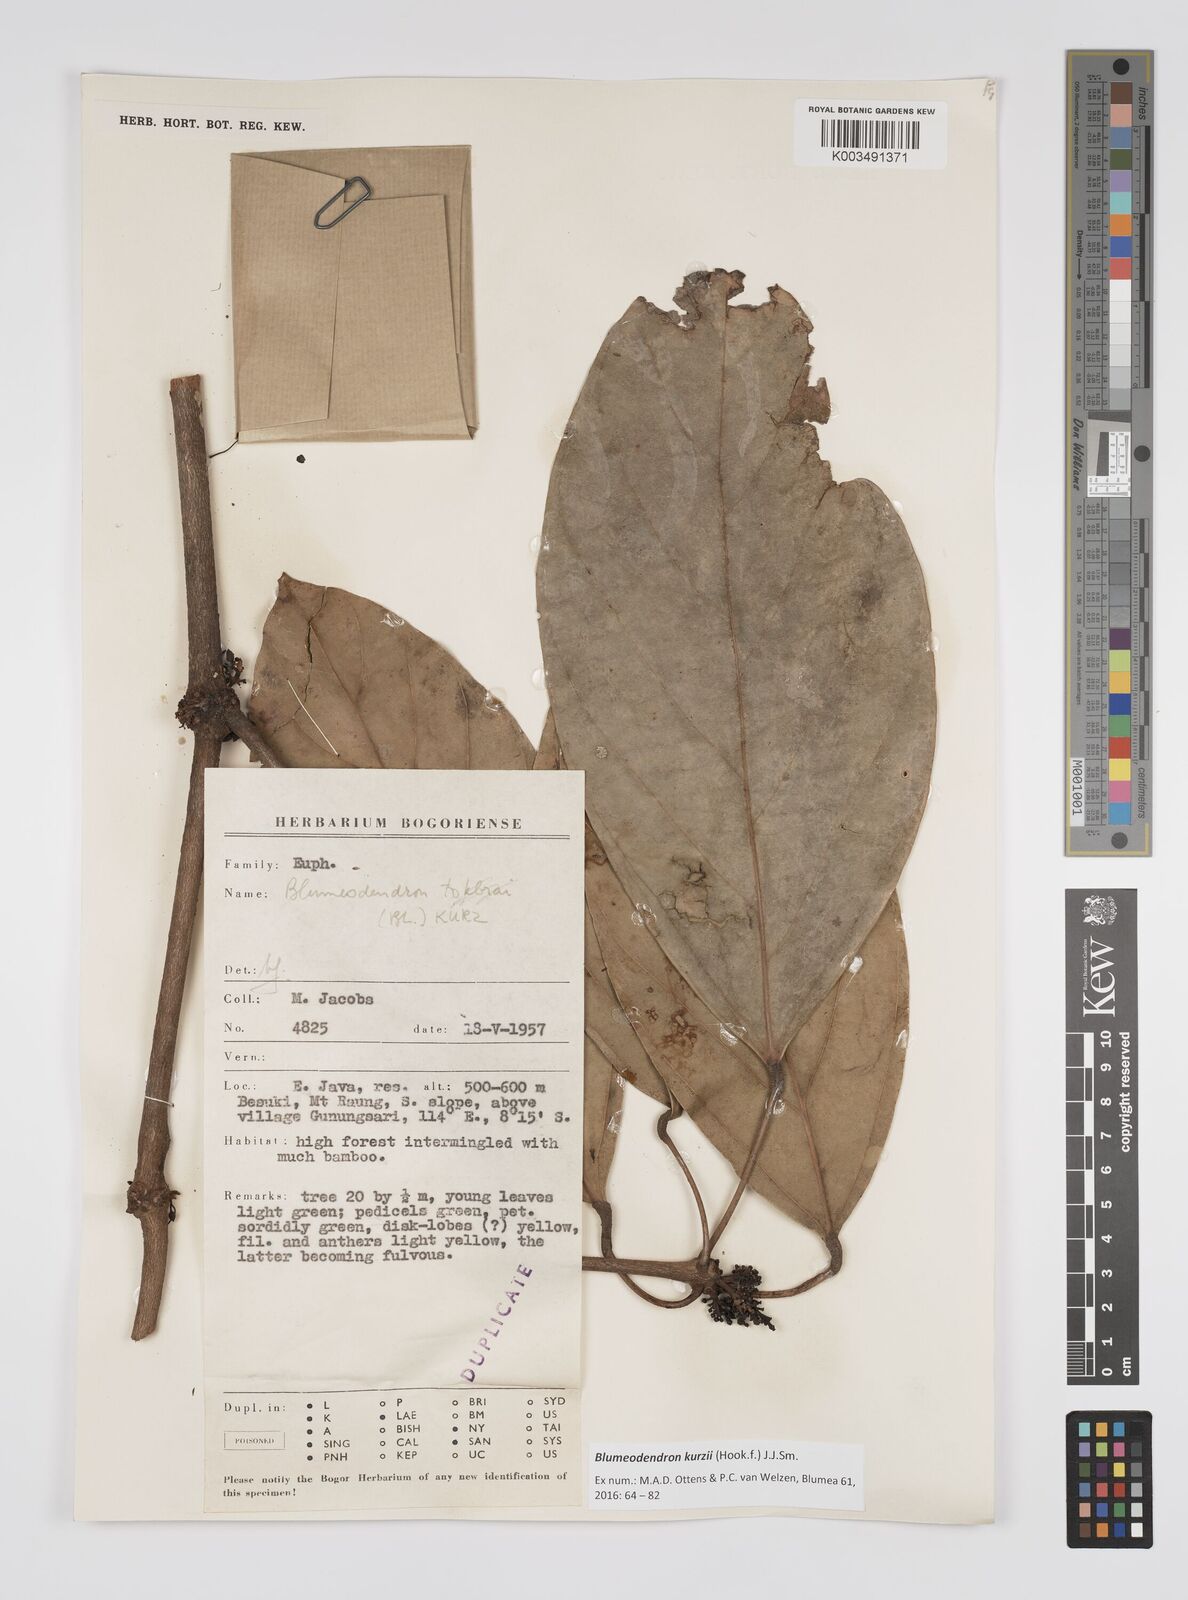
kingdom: Plantae
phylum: Tracheophyta
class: Magnoliopsida
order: Malpighiales
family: Euphorbiaceae
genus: Blumeodendron
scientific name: Blumeodendron kurzii
